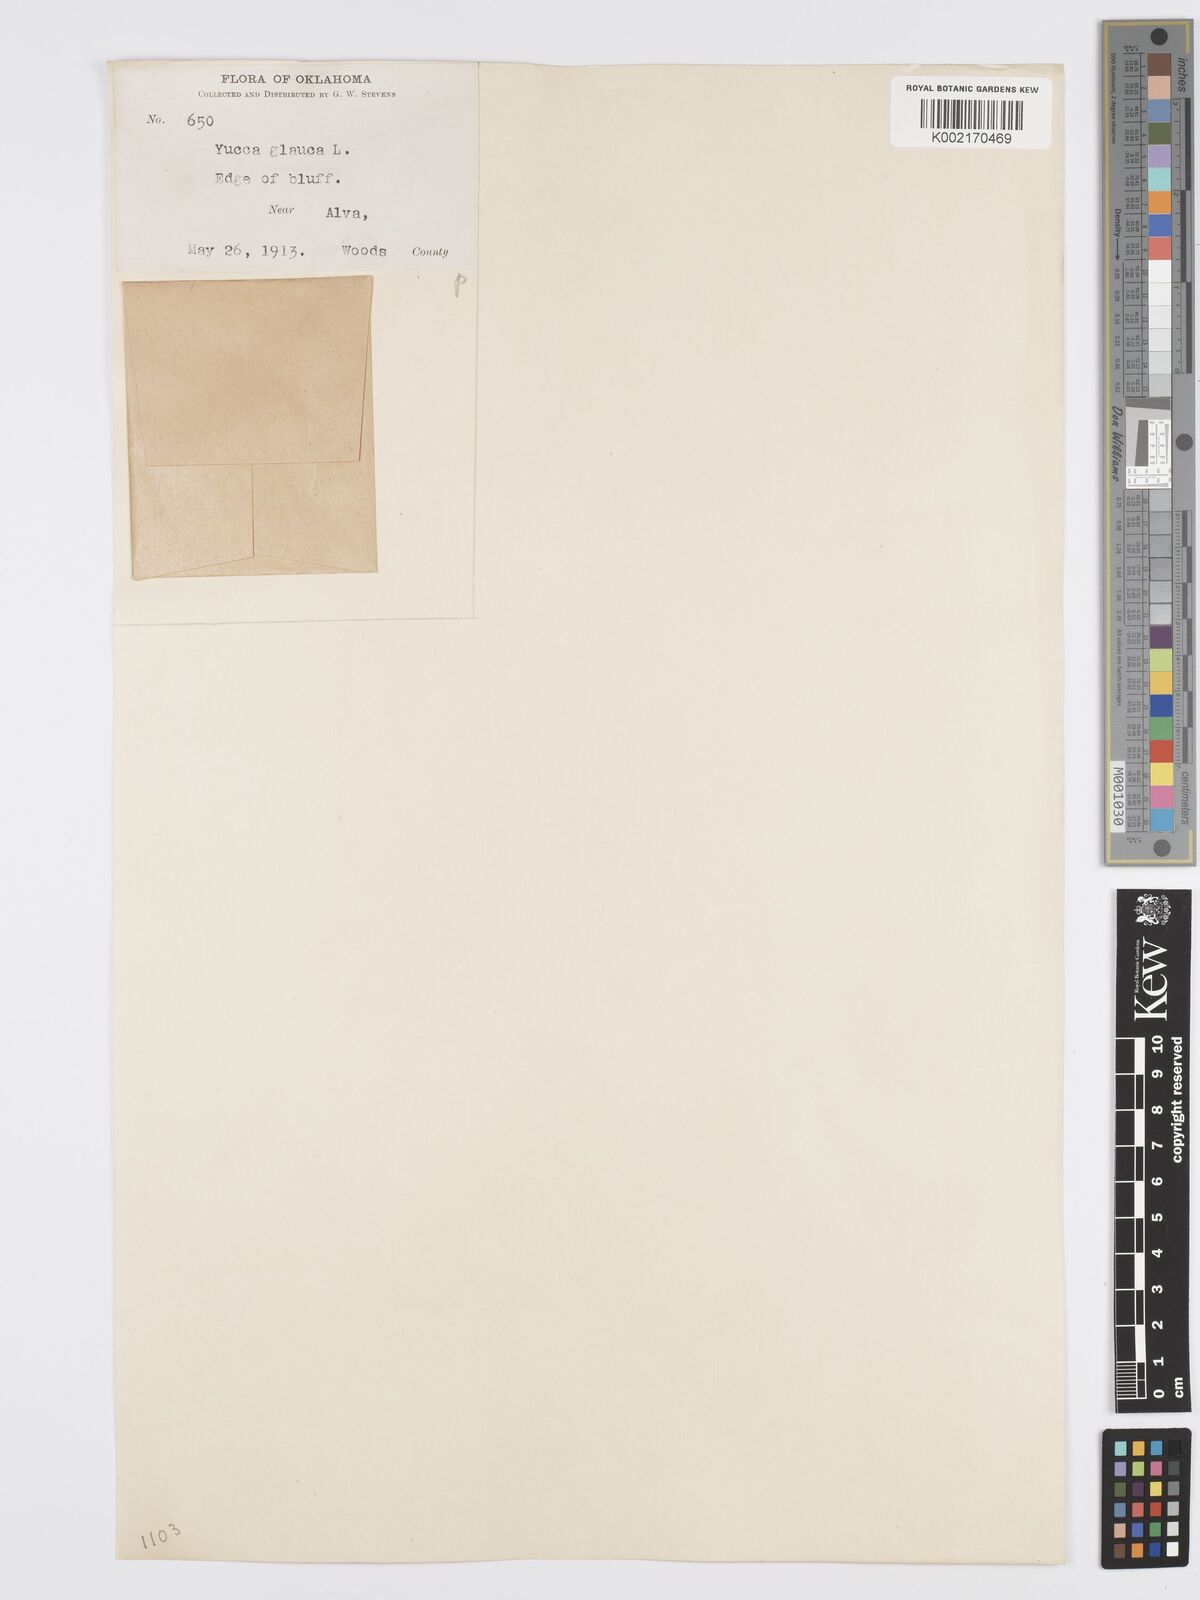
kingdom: Plantae
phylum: Tracheophyta
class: Liliopsida
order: Asparagales
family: Asparagaceae
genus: Yucca
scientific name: Yucca glauca
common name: Great plains yucca
